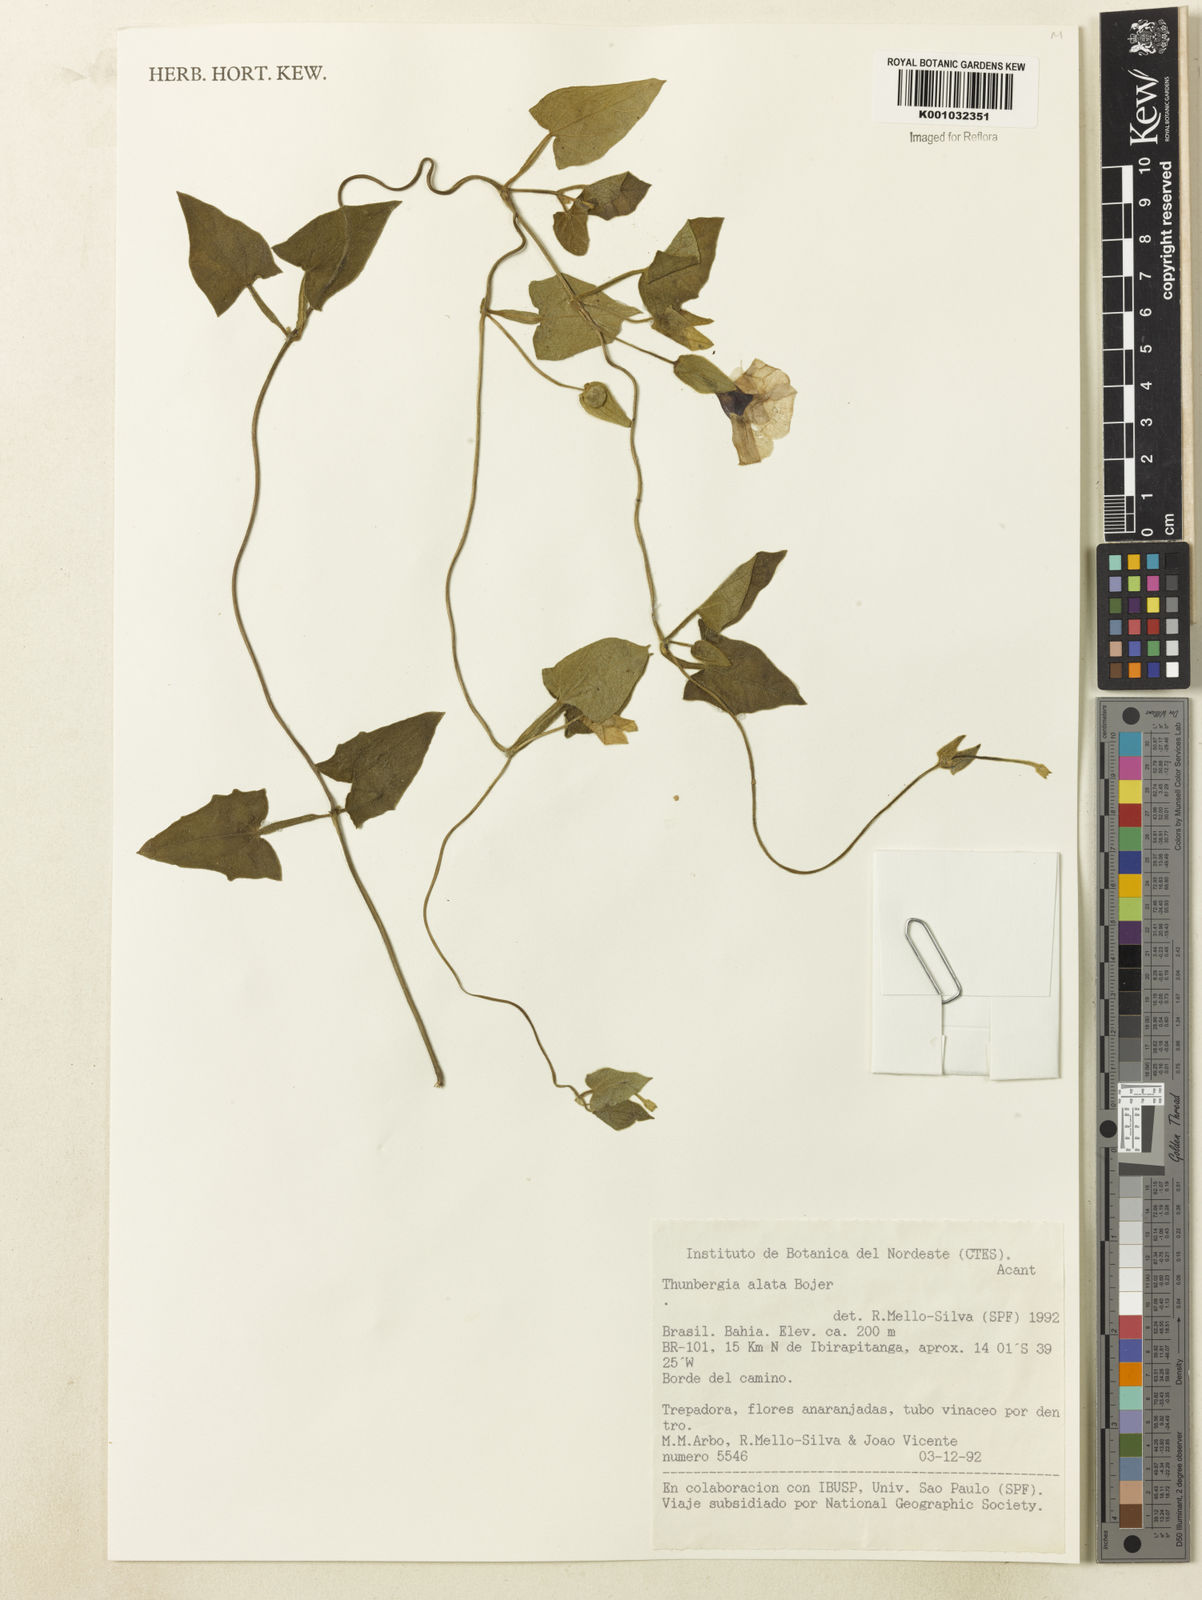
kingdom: Plantae
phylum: Tracheophyta
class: Magnoliopsida
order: Lamiales
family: Acanthaceae
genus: Thunbergia
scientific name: Thunbergia alata
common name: Blackeyed susan vine
